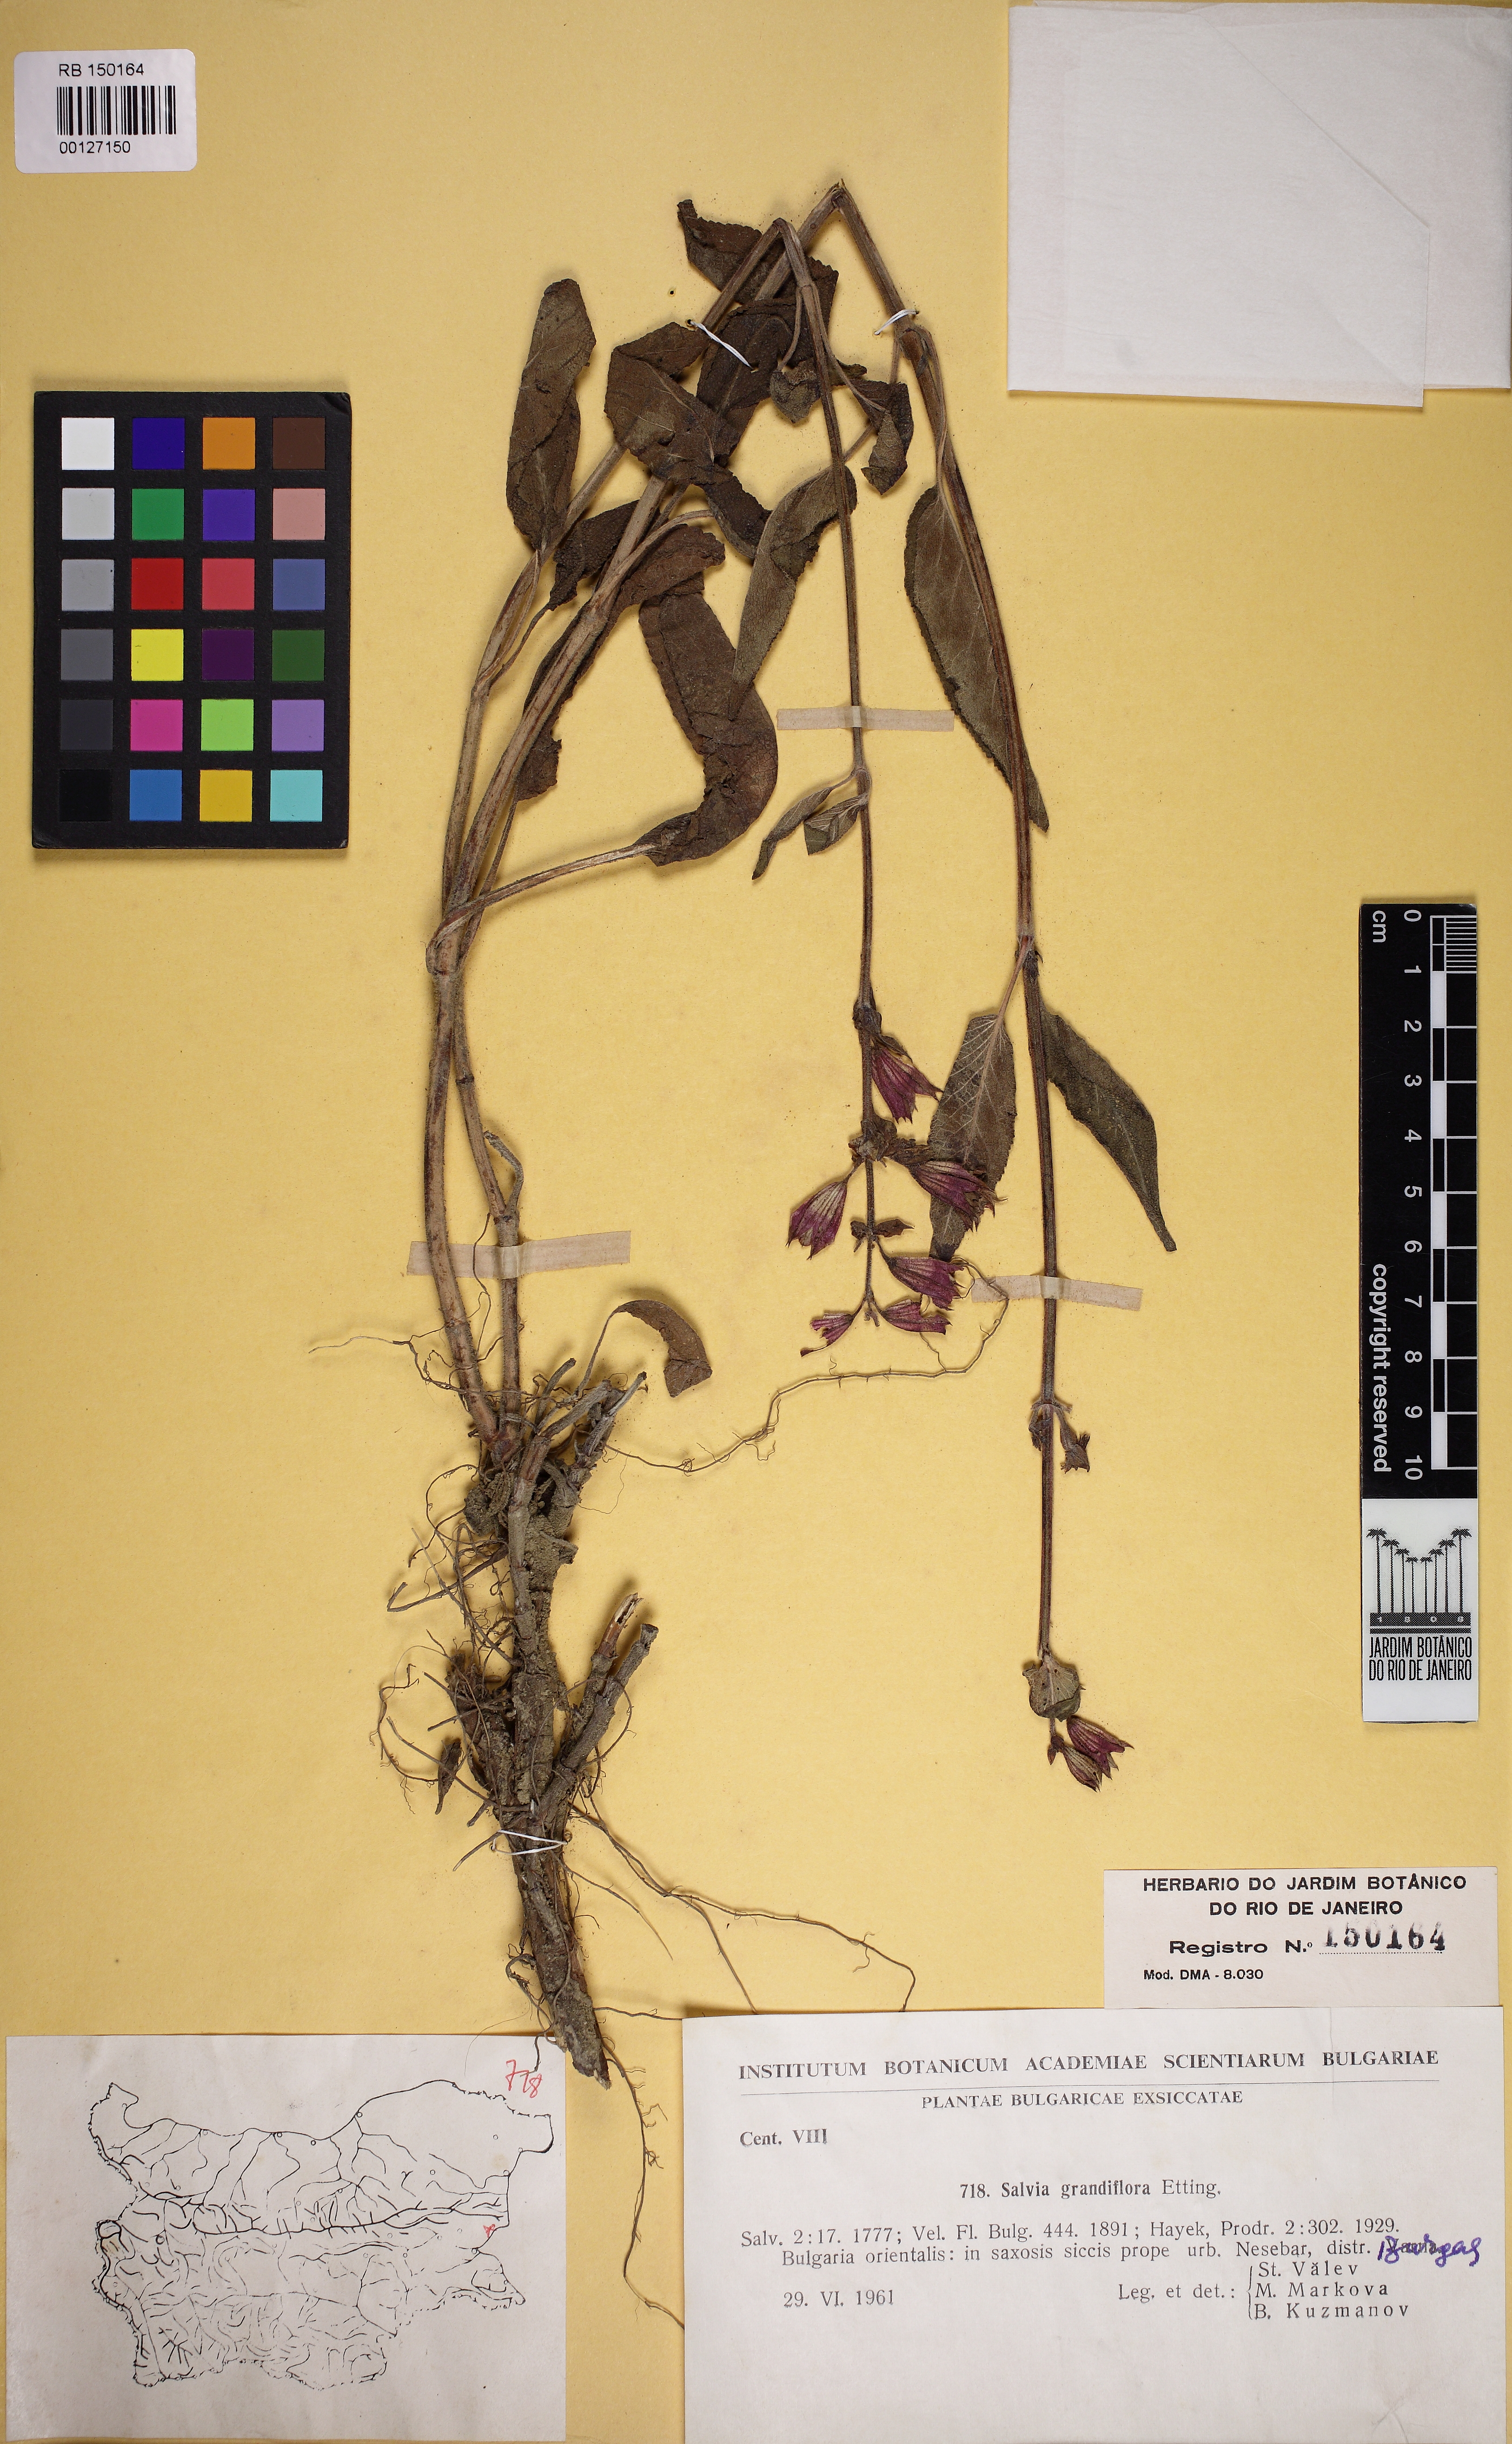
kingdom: Plantae
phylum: Tracheophyta
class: Magnoliopsida
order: Lamiales
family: Lamiaceae
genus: Salvia
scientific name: Salvia tomentosa
